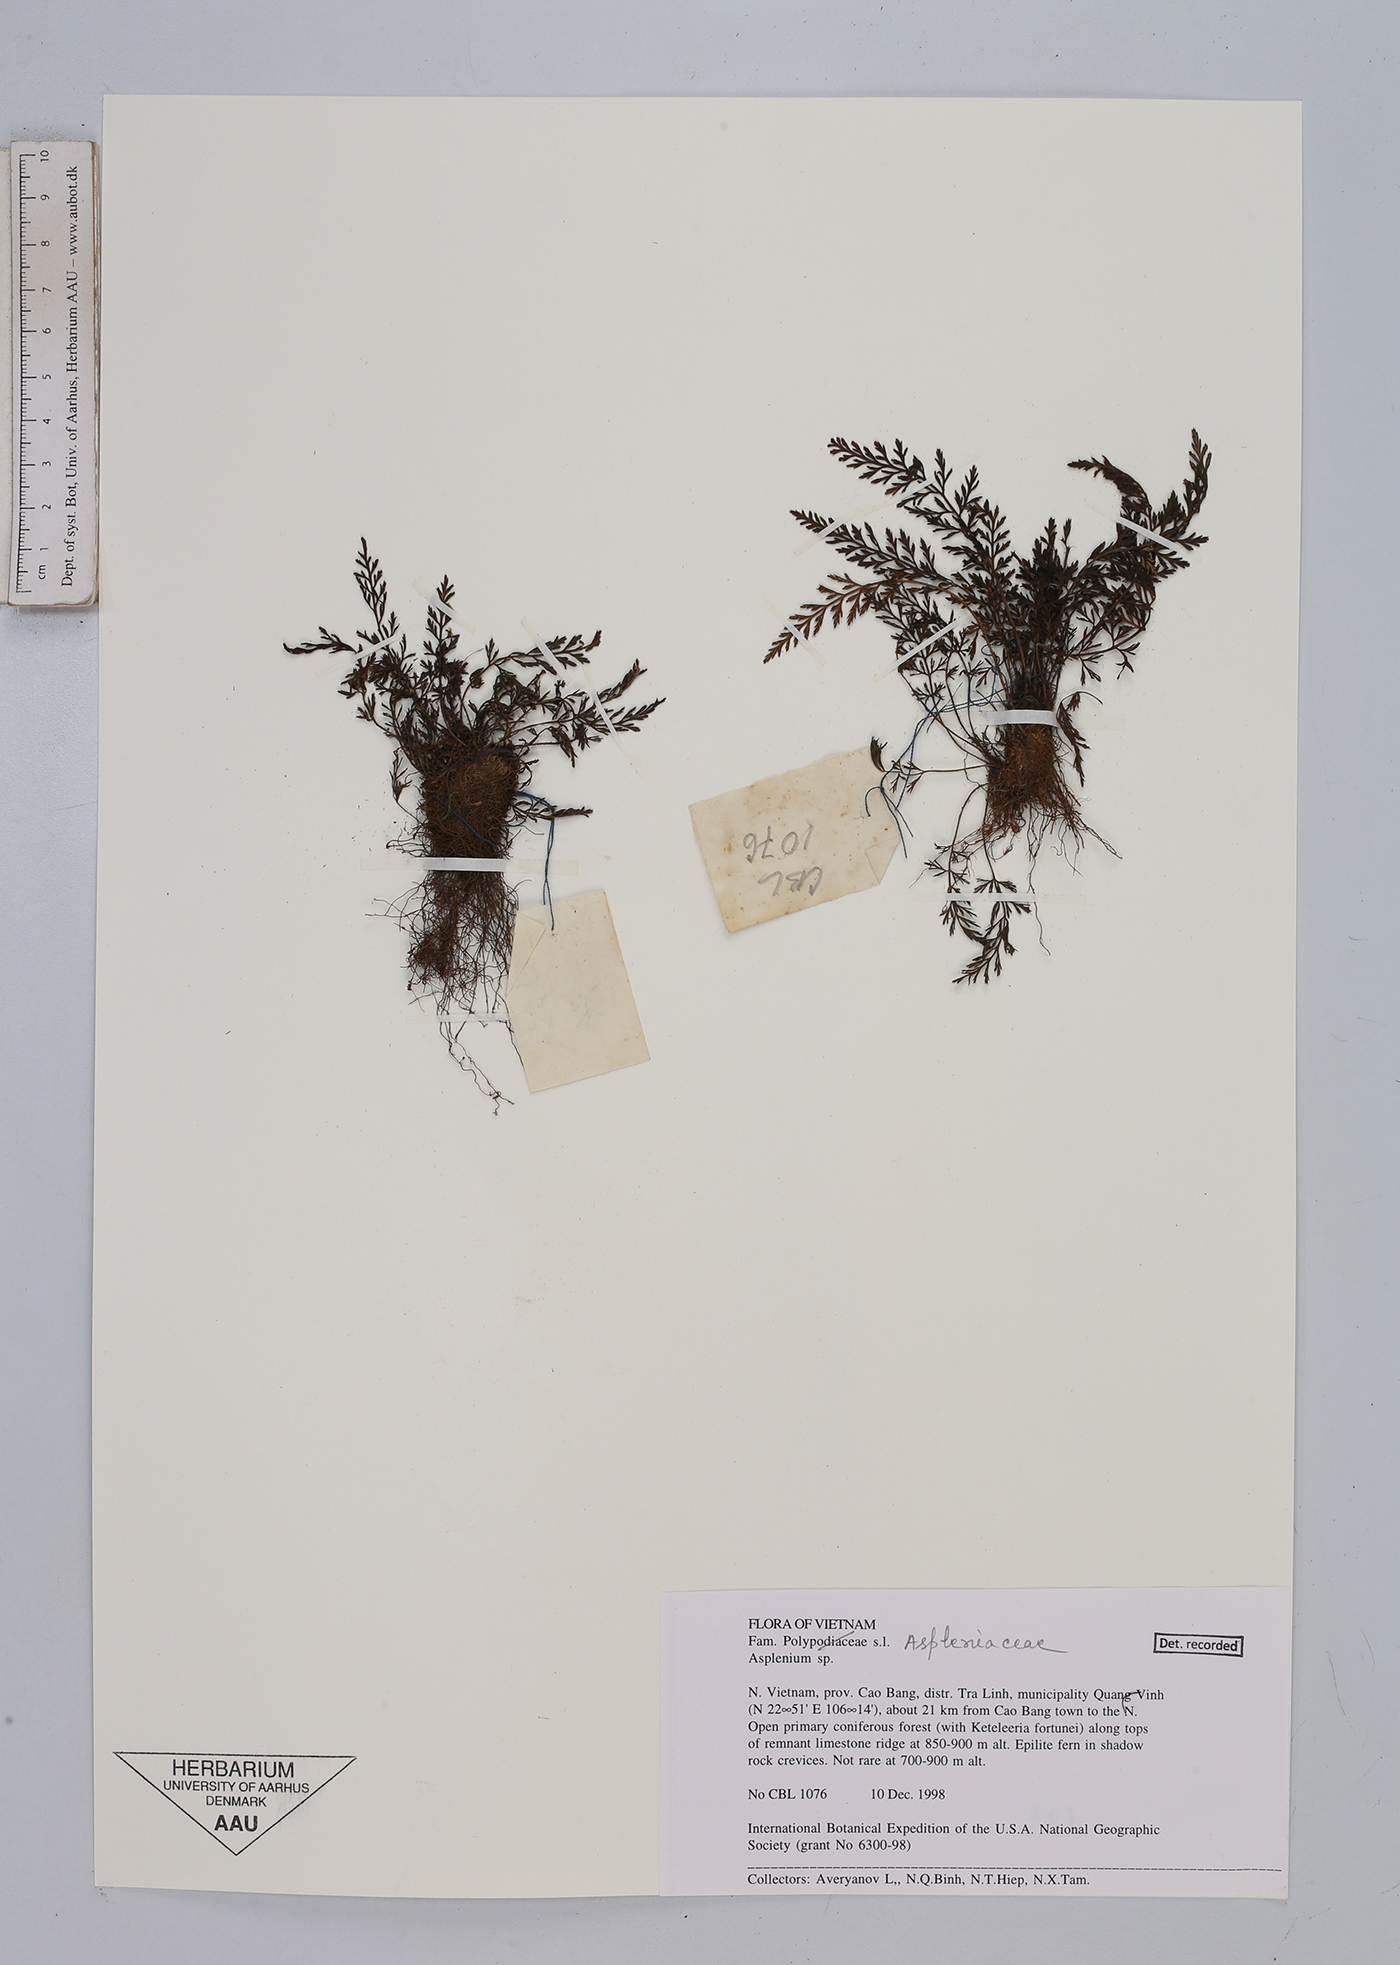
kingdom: Plantae
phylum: Tracheophyta
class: Polypodiopsida
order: Polypodiales
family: Aspleniaceae
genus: Asplenium
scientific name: Asplenium
